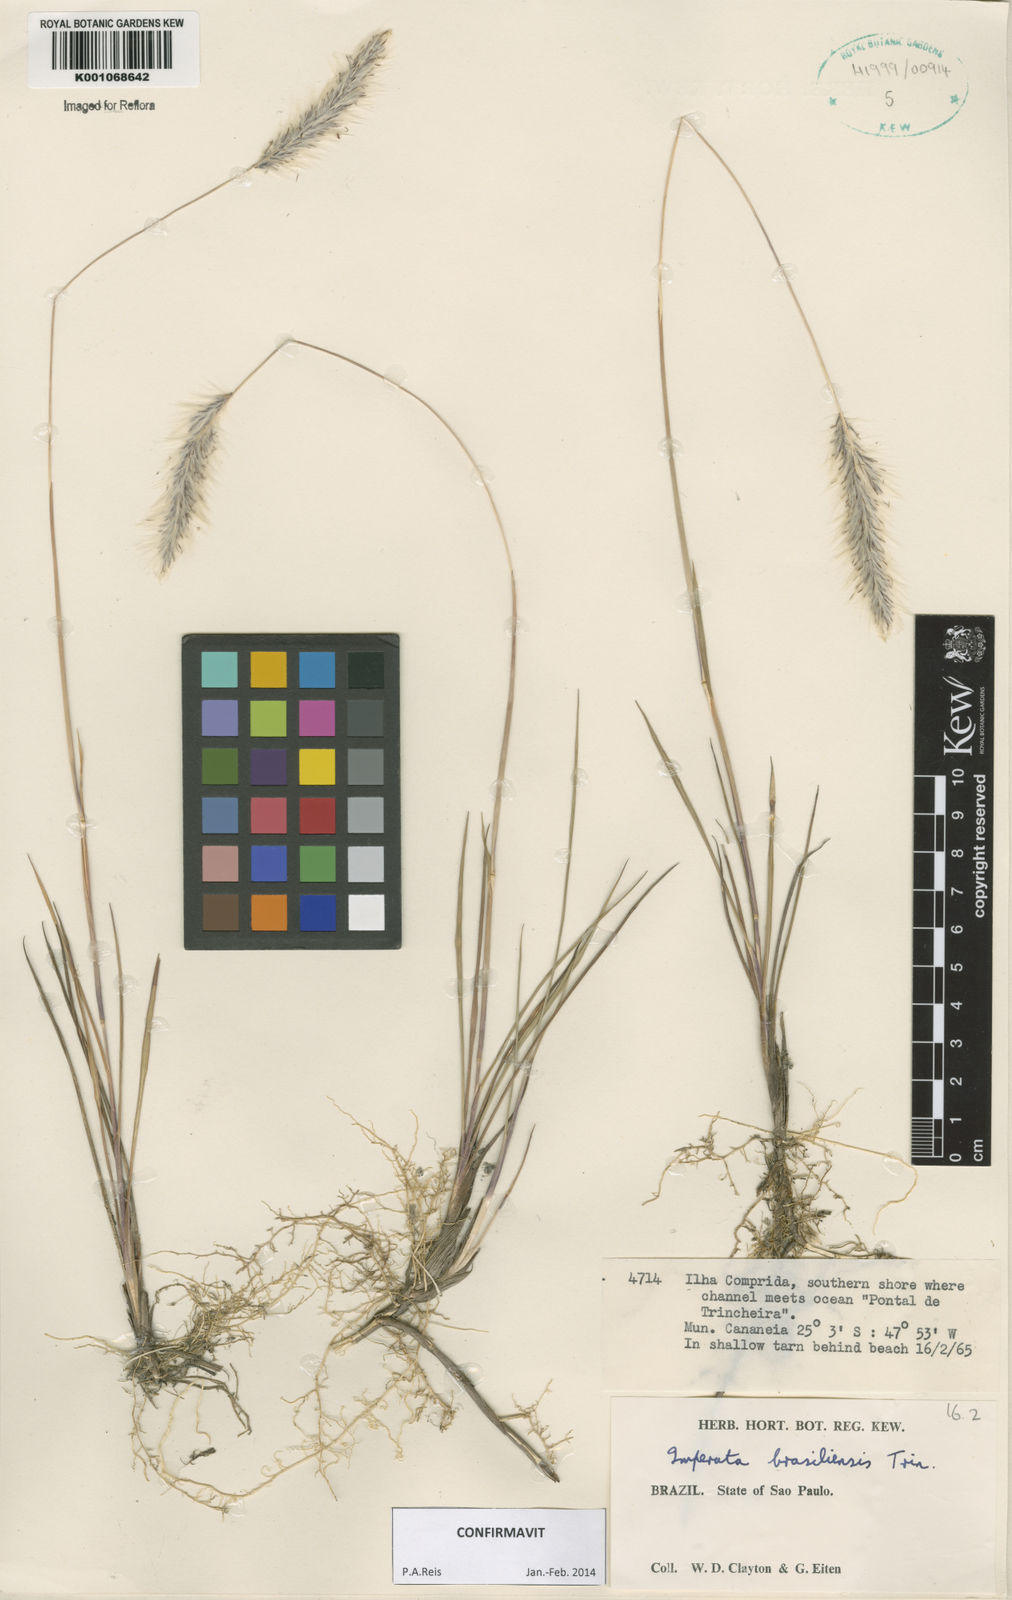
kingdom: Plantae
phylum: Tracheophyta
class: Liliopsida
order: Poales
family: Poaceae
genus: Imperata
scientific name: Imperata brasiliensis
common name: Brazilian satintail
